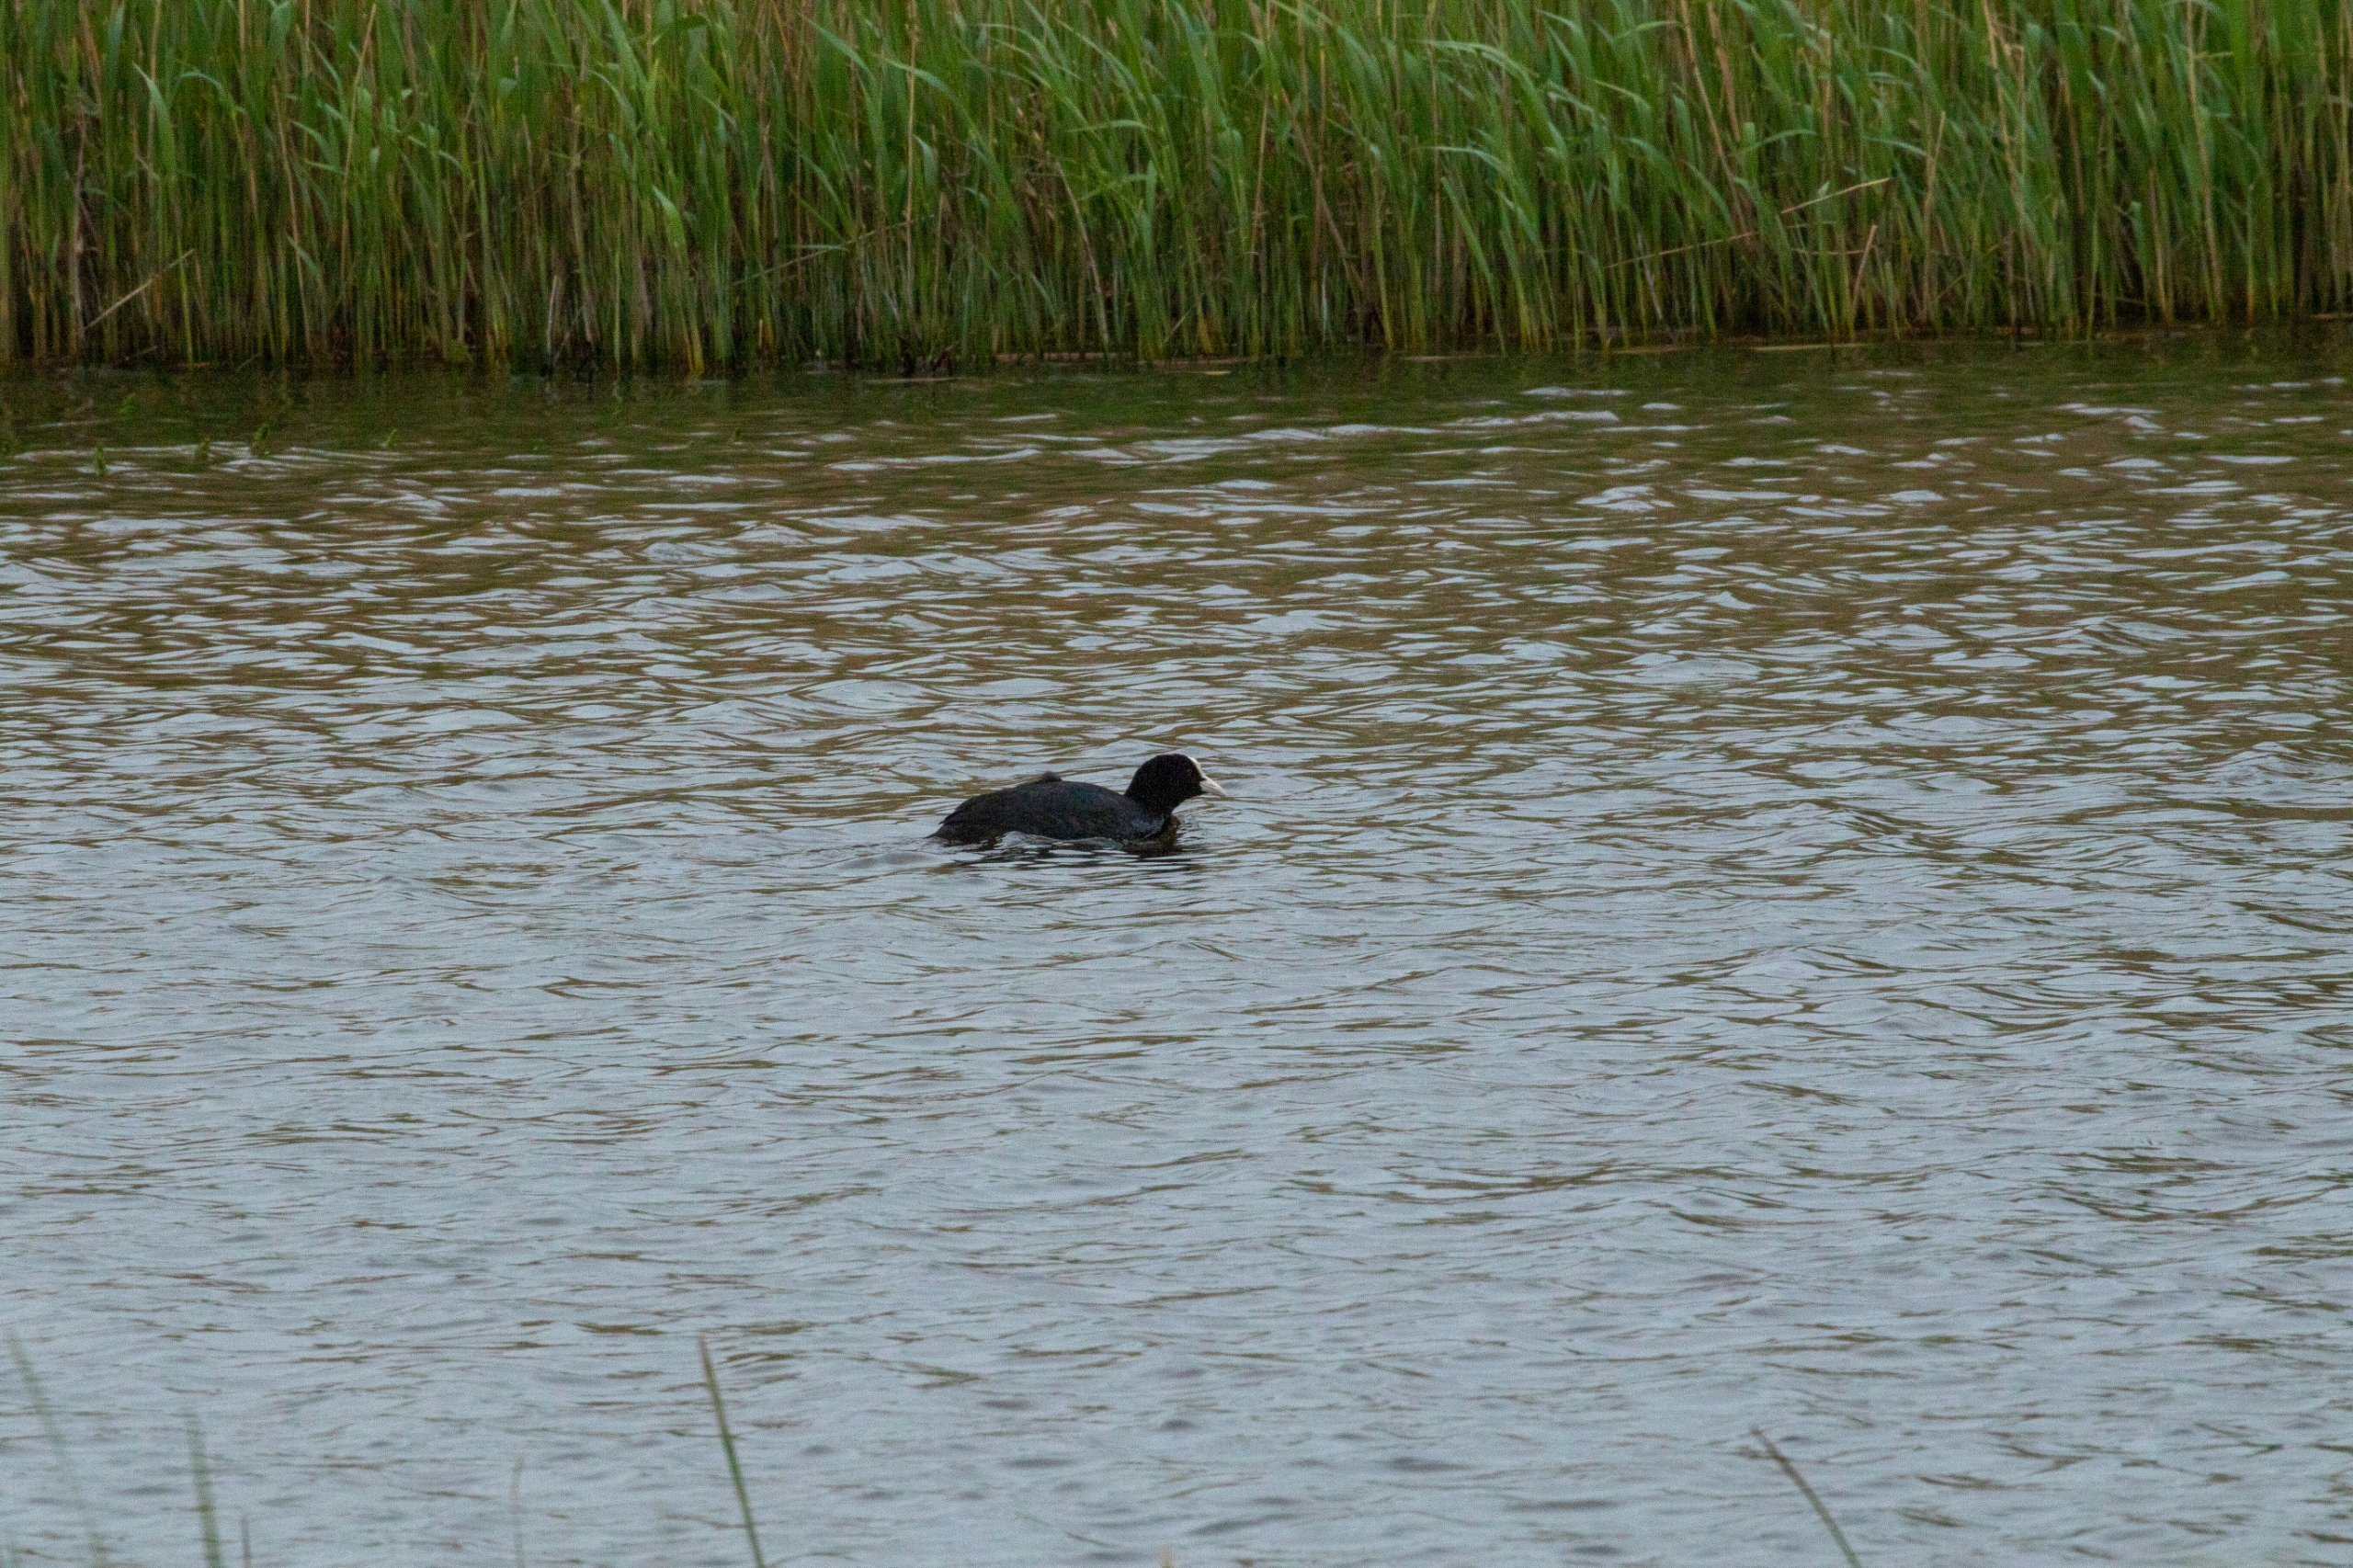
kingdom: Animalia
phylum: Chordata
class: Aves
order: Gruiformes
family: Rallidae
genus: Fulica
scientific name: Fulica atra
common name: Blishøne
